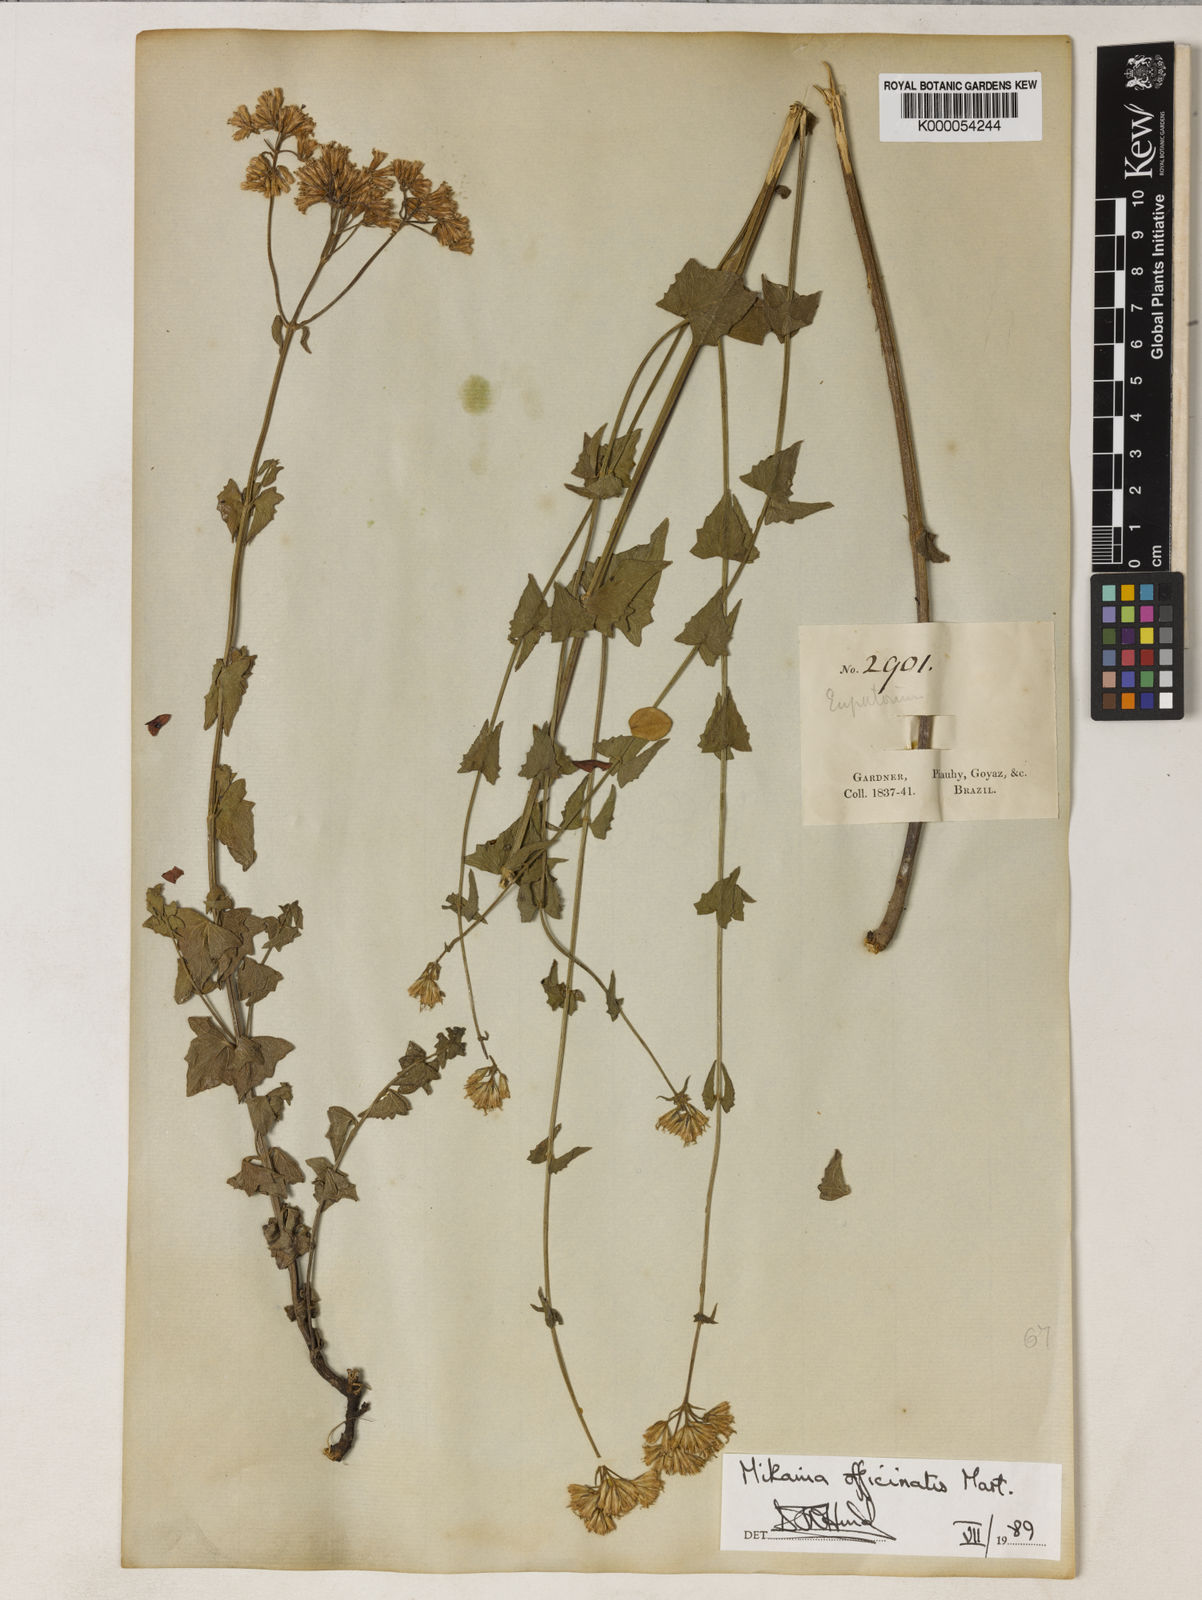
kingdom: Plantae
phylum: Tracheophyta
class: Magnoliopsida
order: Asterales
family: Asteraceae
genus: Mikania
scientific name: Mikania officinalis
